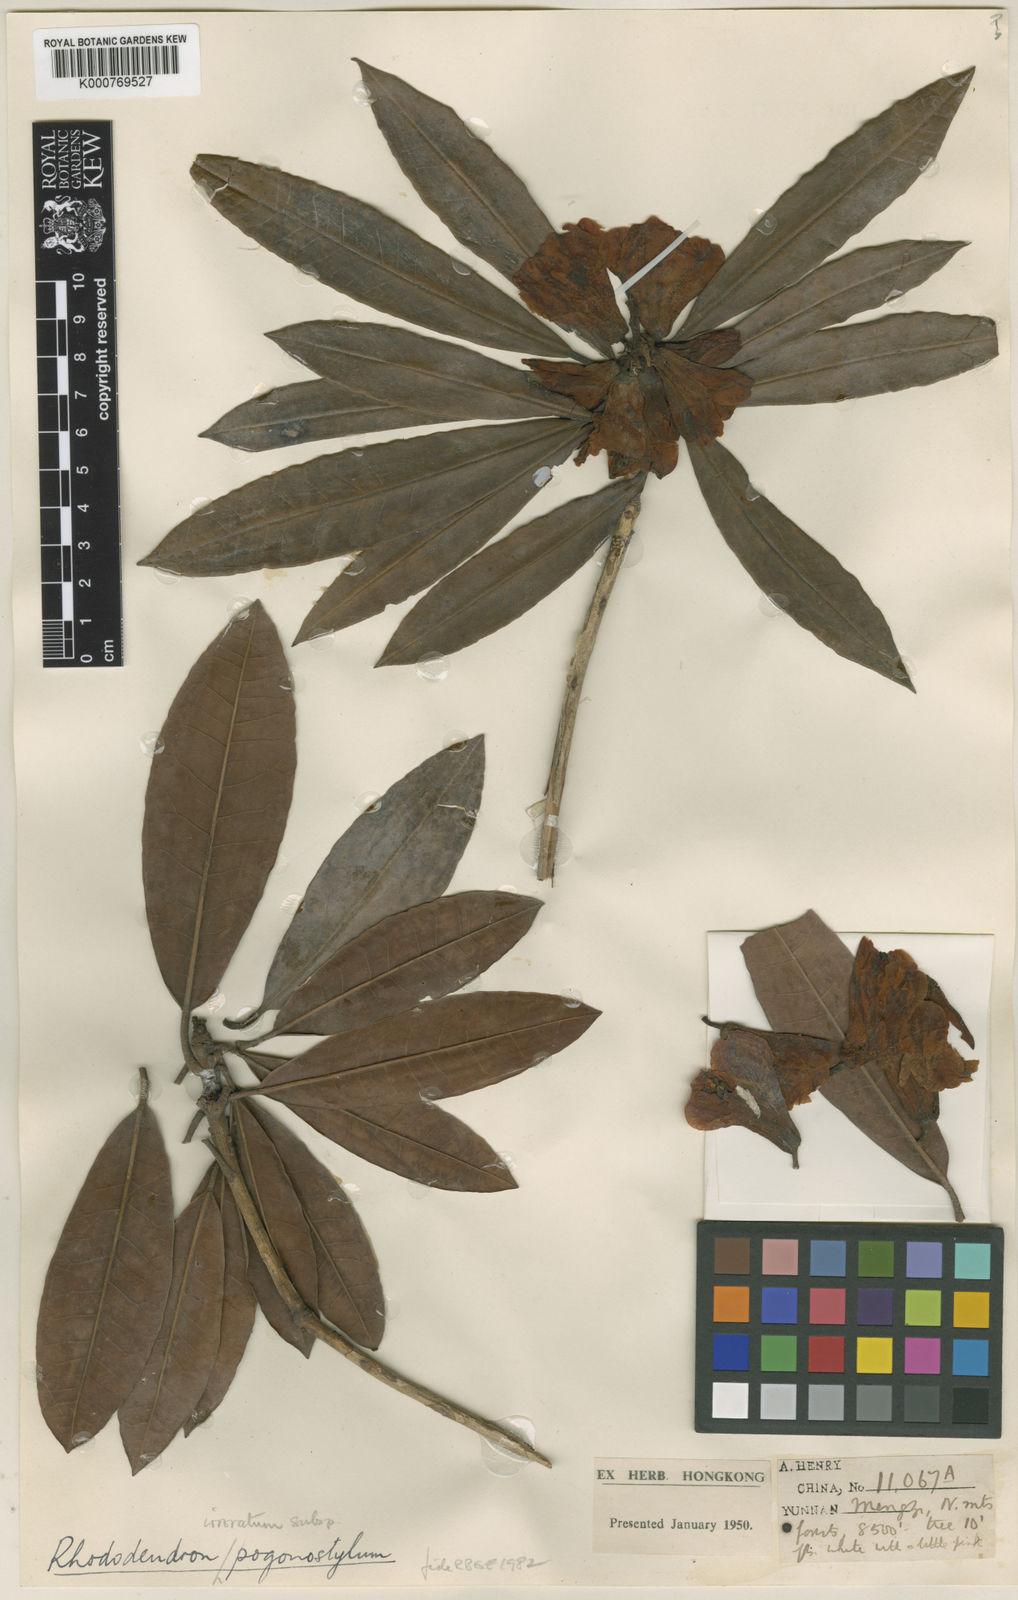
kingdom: Plantae
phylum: Tracheophyta
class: Magnoliopsida
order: Ericales
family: Ericaceae
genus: Rhododendron
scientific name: Rhododendron irroratum
